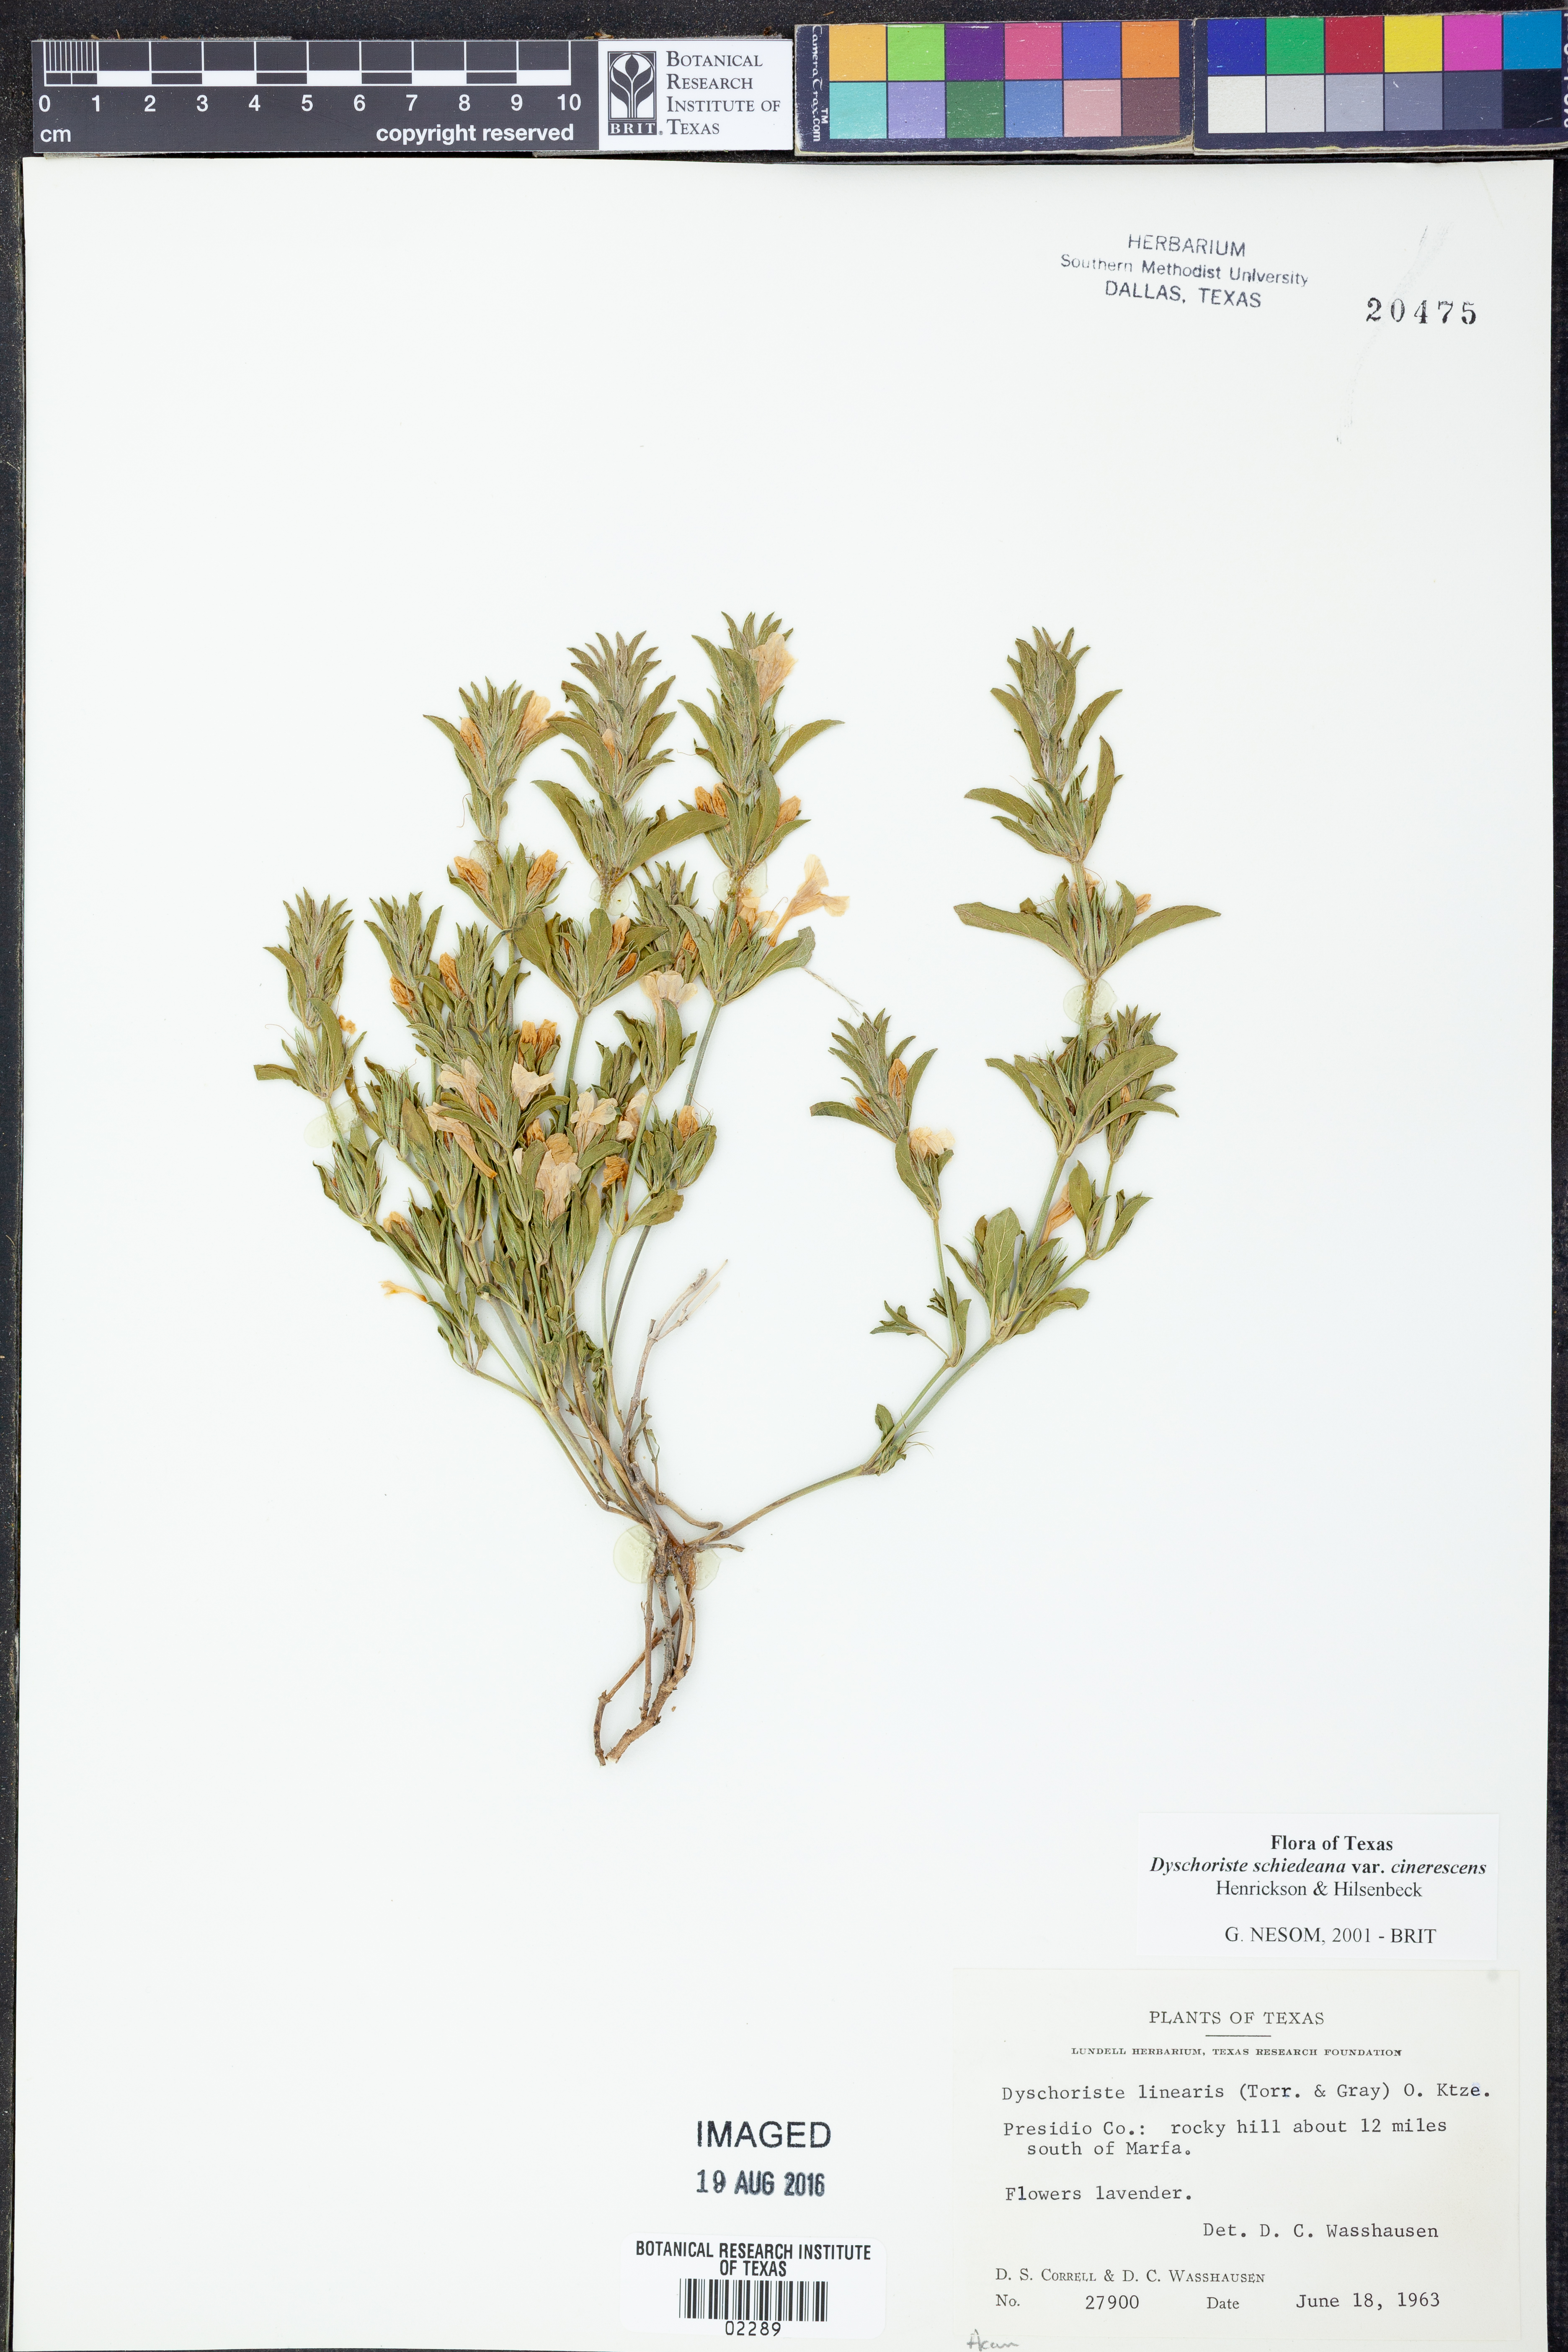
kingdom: Plantae
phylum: Tracheophyta
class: Magnoliopsida
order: Lamiales
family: Acanthaceae
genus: Dyschoriste
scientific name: Dyschoriste cinerascens
